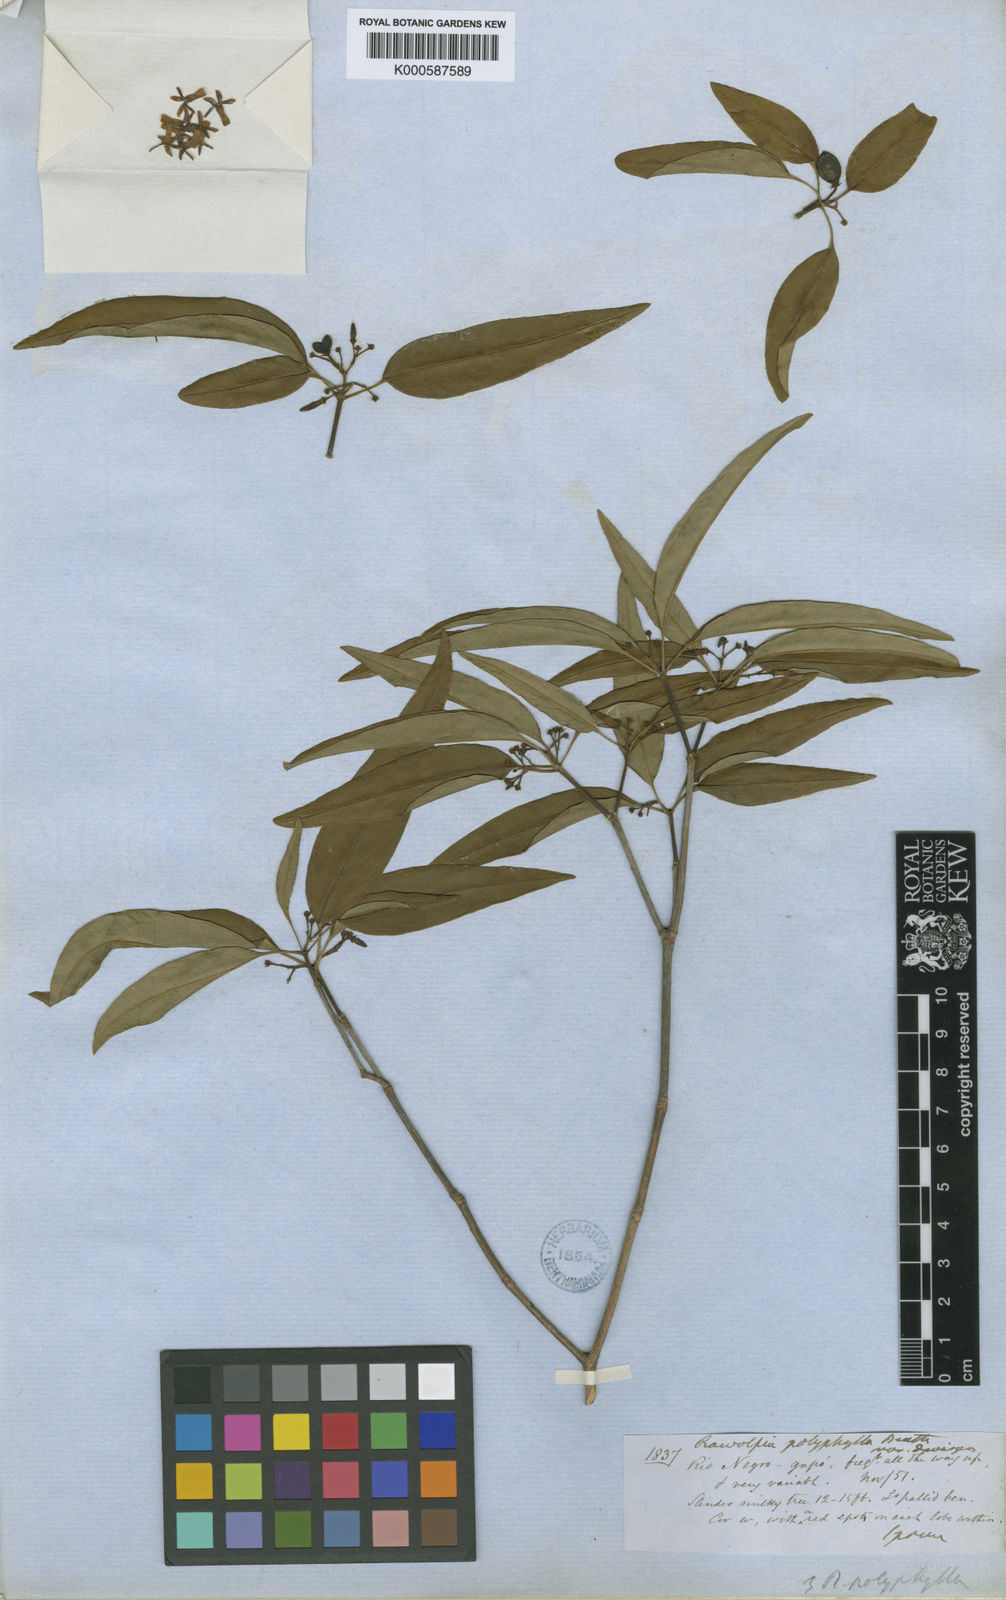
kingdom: Plantae
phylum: Tracheophyta
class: Magnoliopsida
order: Gentianales
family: Apocynaceae
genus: Rauvolfia
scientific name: Rauvolfia polyphylla
